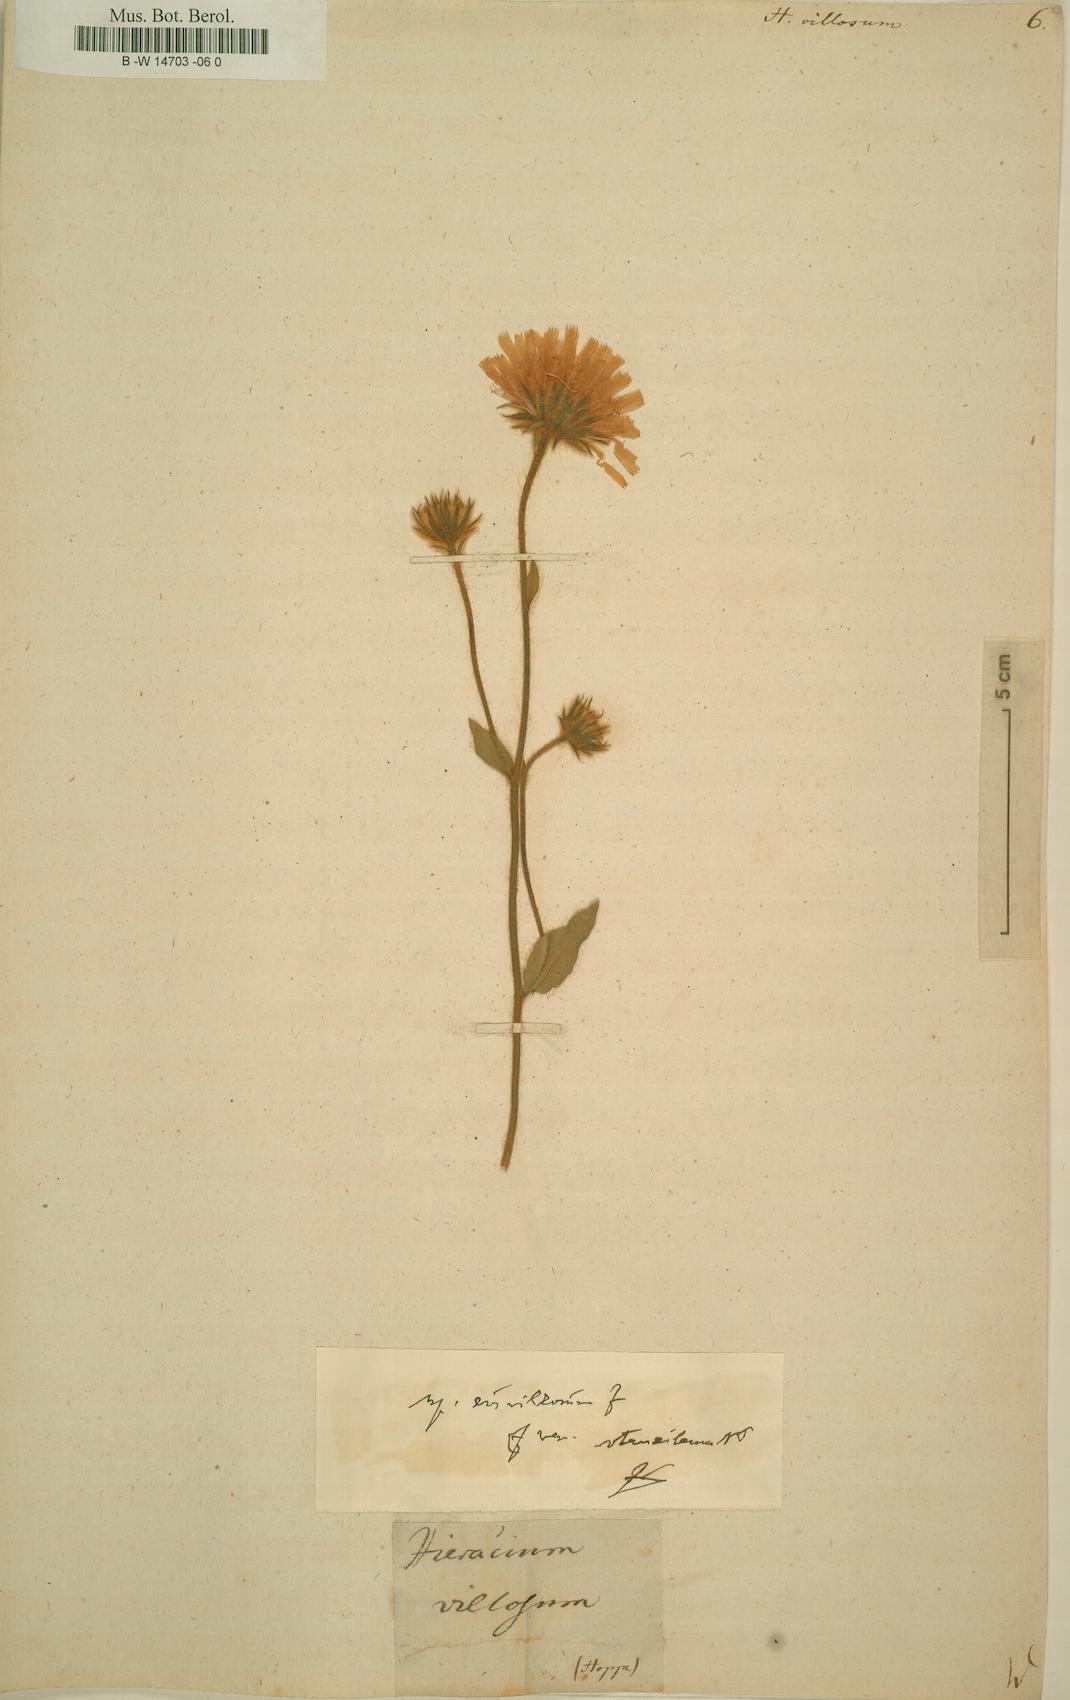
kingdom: Plantae
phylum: Tracheophyta
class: Magnoliopsida
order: Asterales
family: Asteraceae
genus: Hieracium
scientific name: Hieracium villosum
